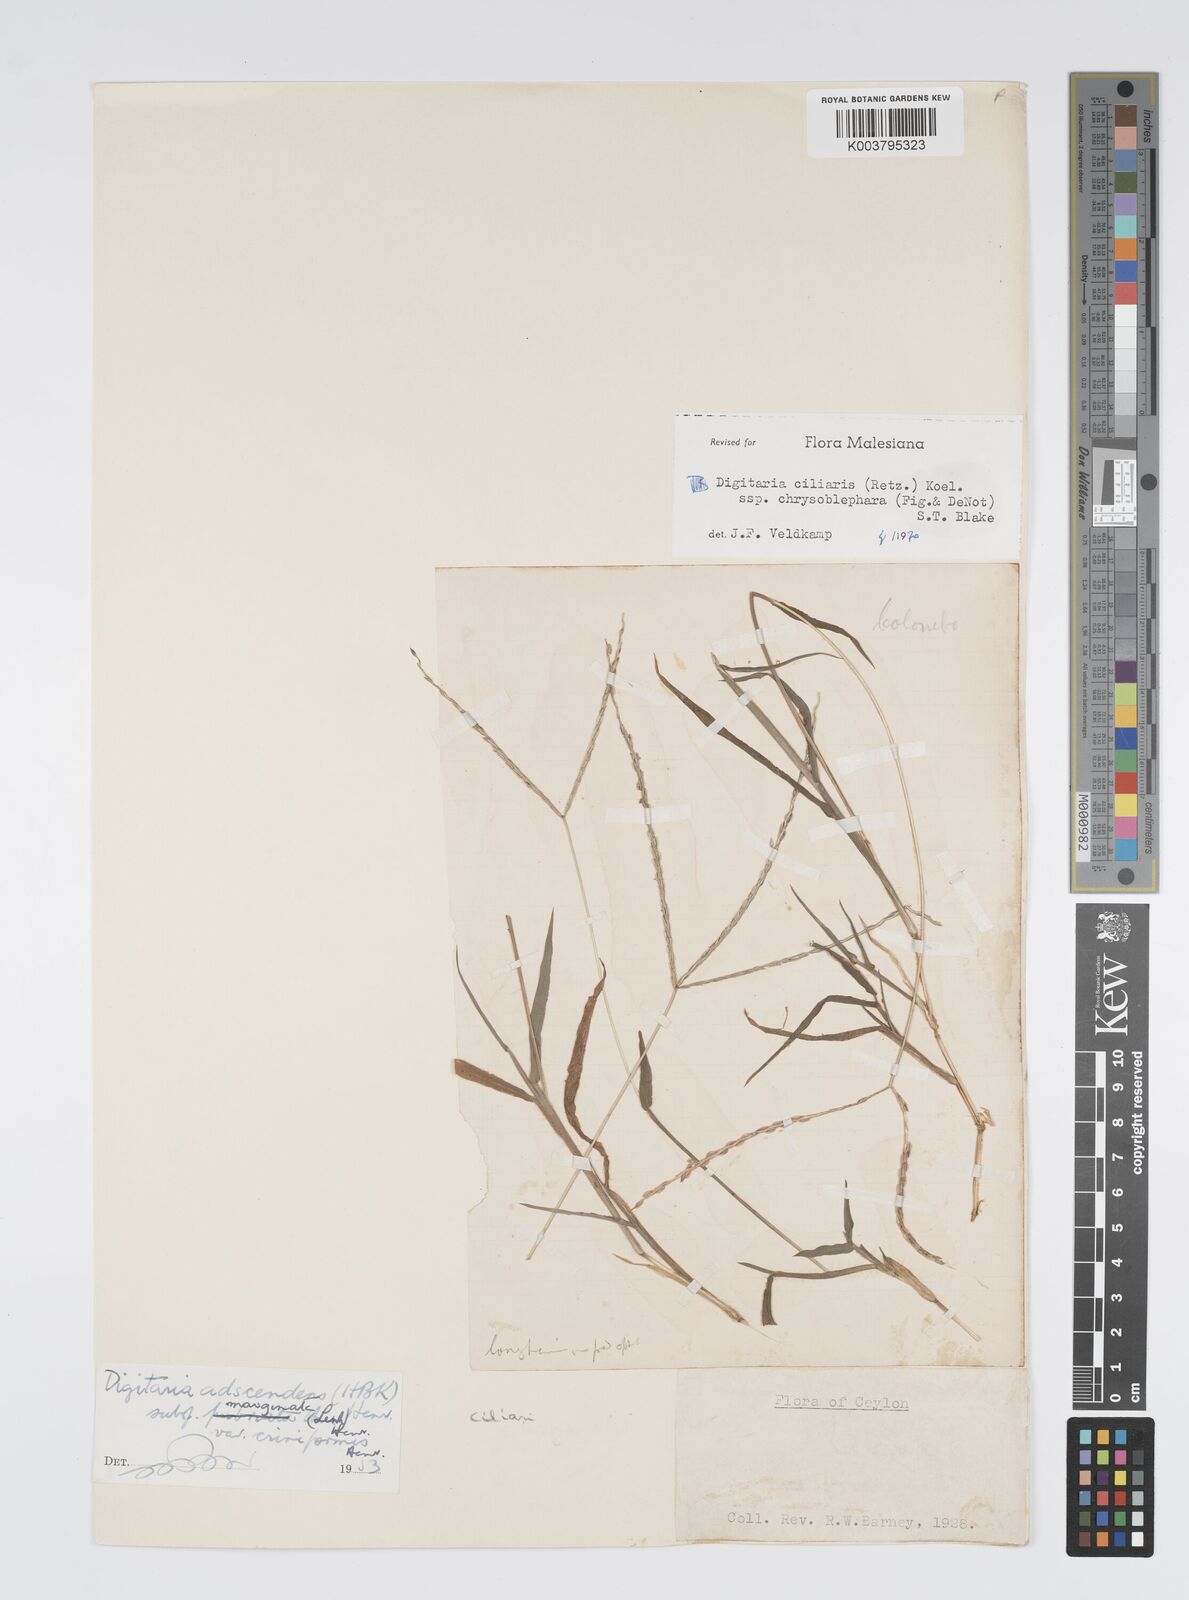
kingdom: Plantae
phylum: Tracheophyta
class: Liliopsida
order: Poales
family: Poaceae
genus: Digitaria
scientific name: Digitaria ciliaris
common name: Tropical finger-grass
